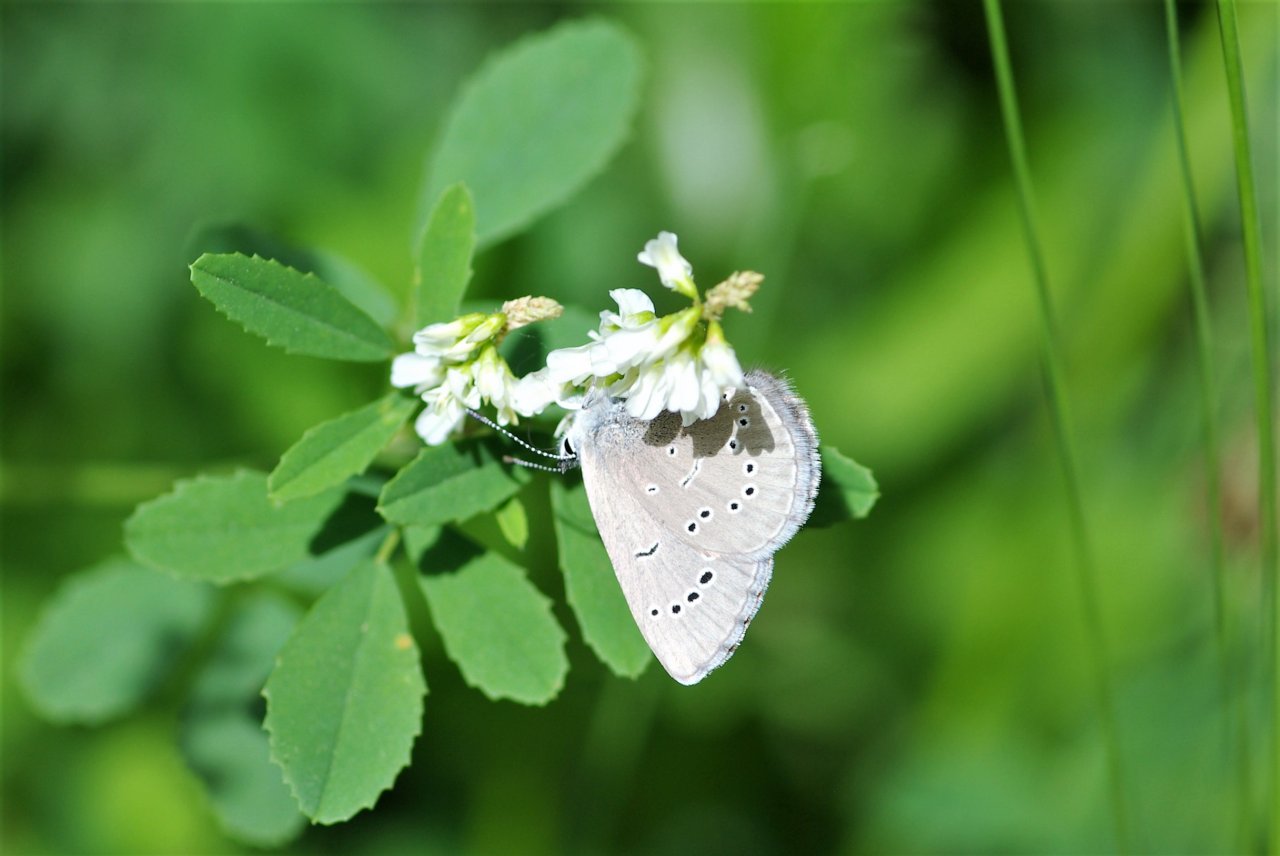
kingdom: Animalia
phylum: Arthropoda
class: Insecta
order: Lepidoptera
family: Lycaenidae
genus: Glaucopsyche
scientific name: Glaucopsyche lygdamus
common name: Silvery Blue
